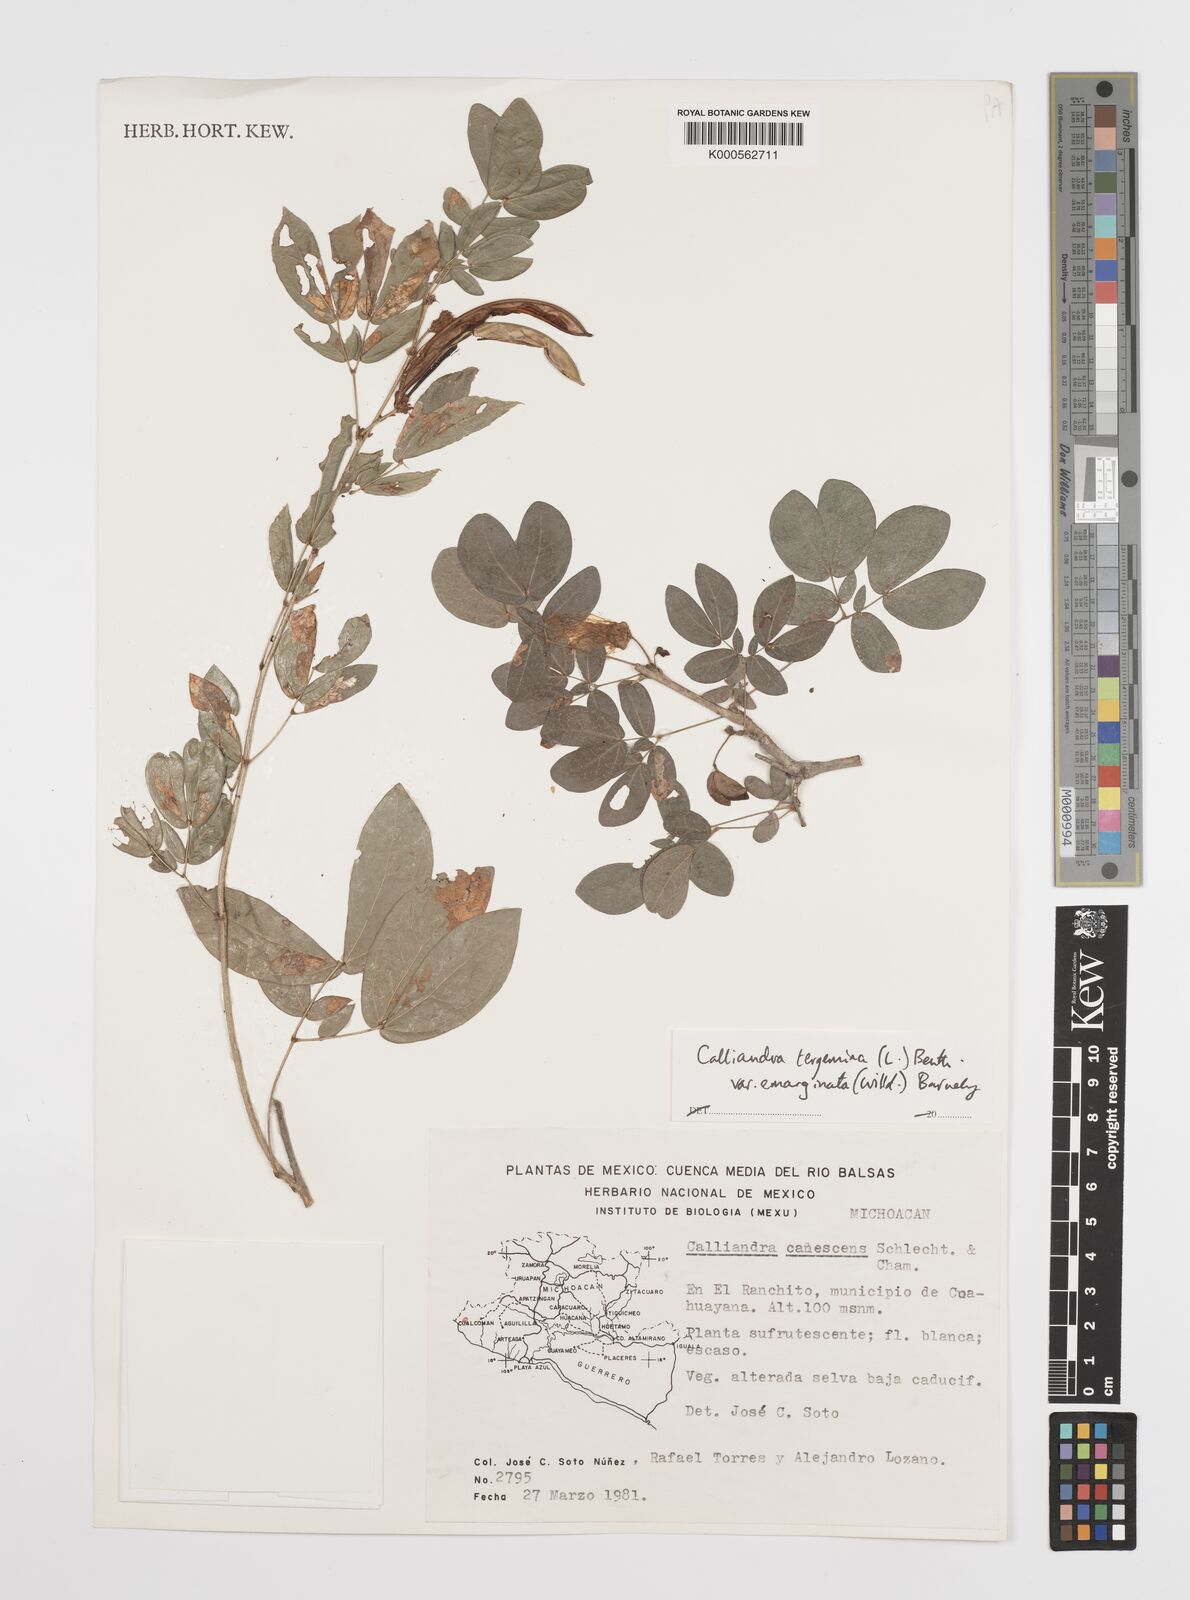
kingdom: Plantae
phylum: Tracheophyta
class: Magnoliopsida
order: Fabales
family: Fabaceae
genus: Calliandra
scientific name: Calliandra tergemina
